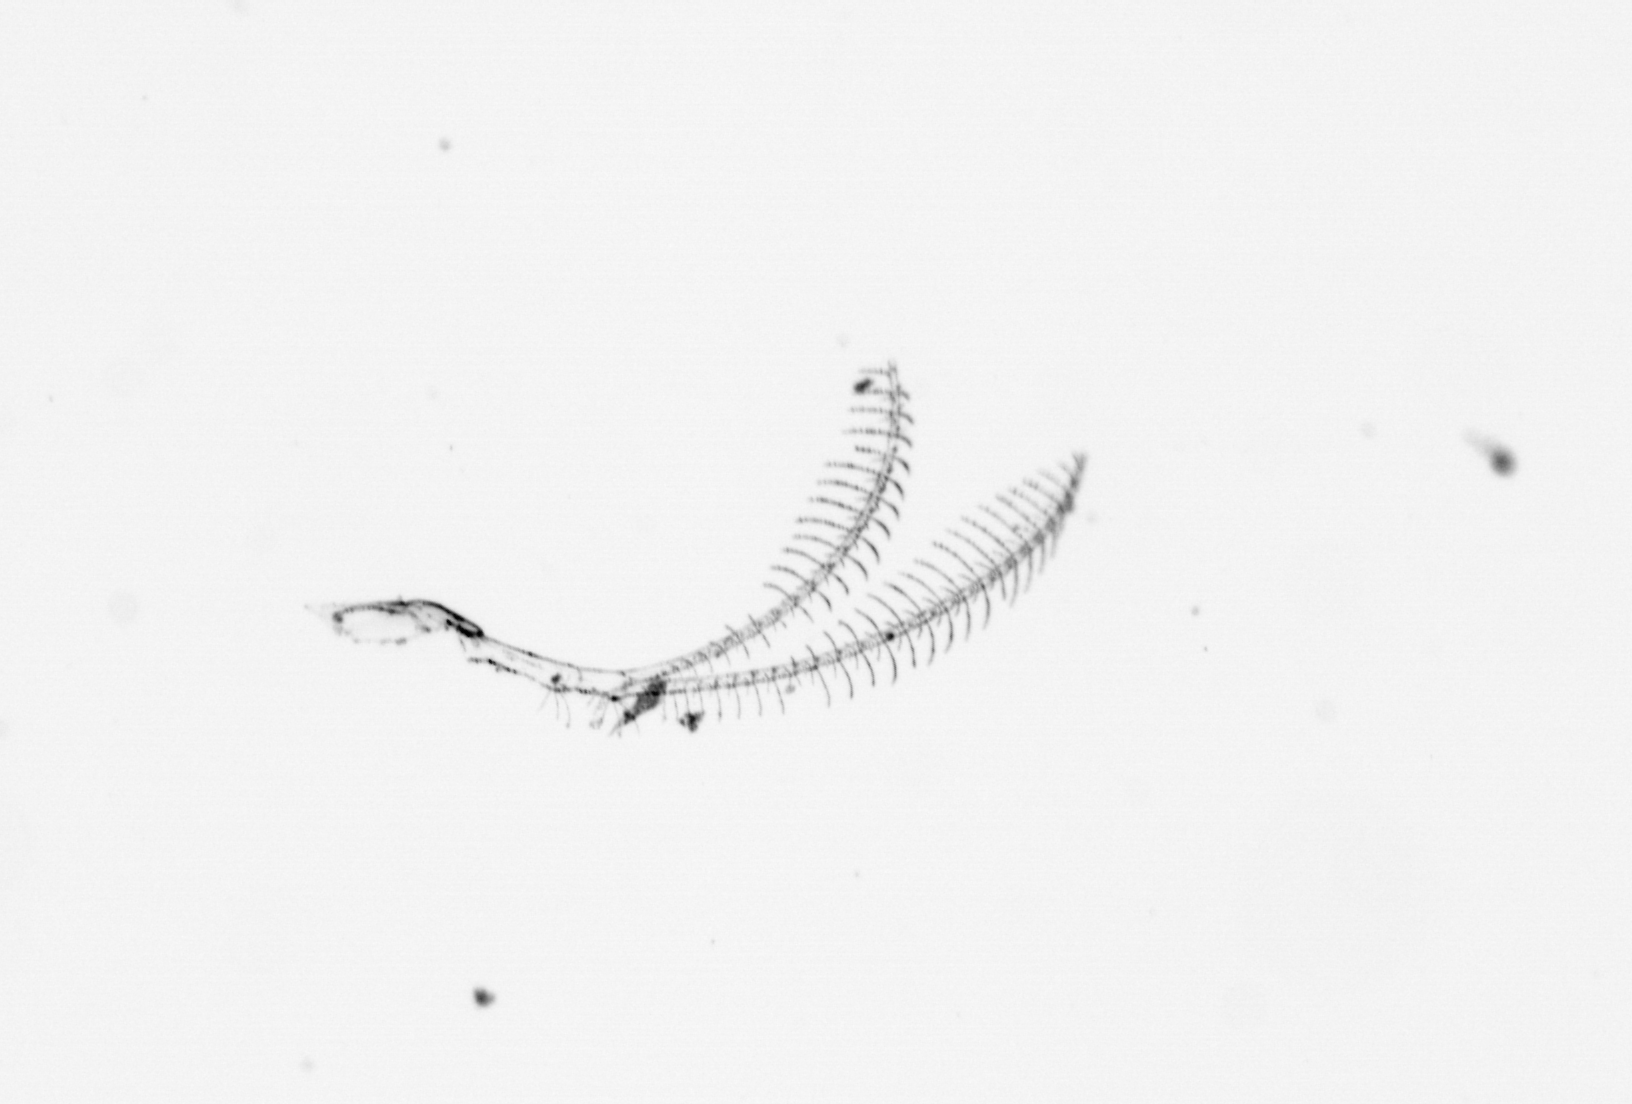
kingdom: Chromista
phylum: Ochrophyta
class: Bacillariophyceae
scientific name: Bacillariophyceae
